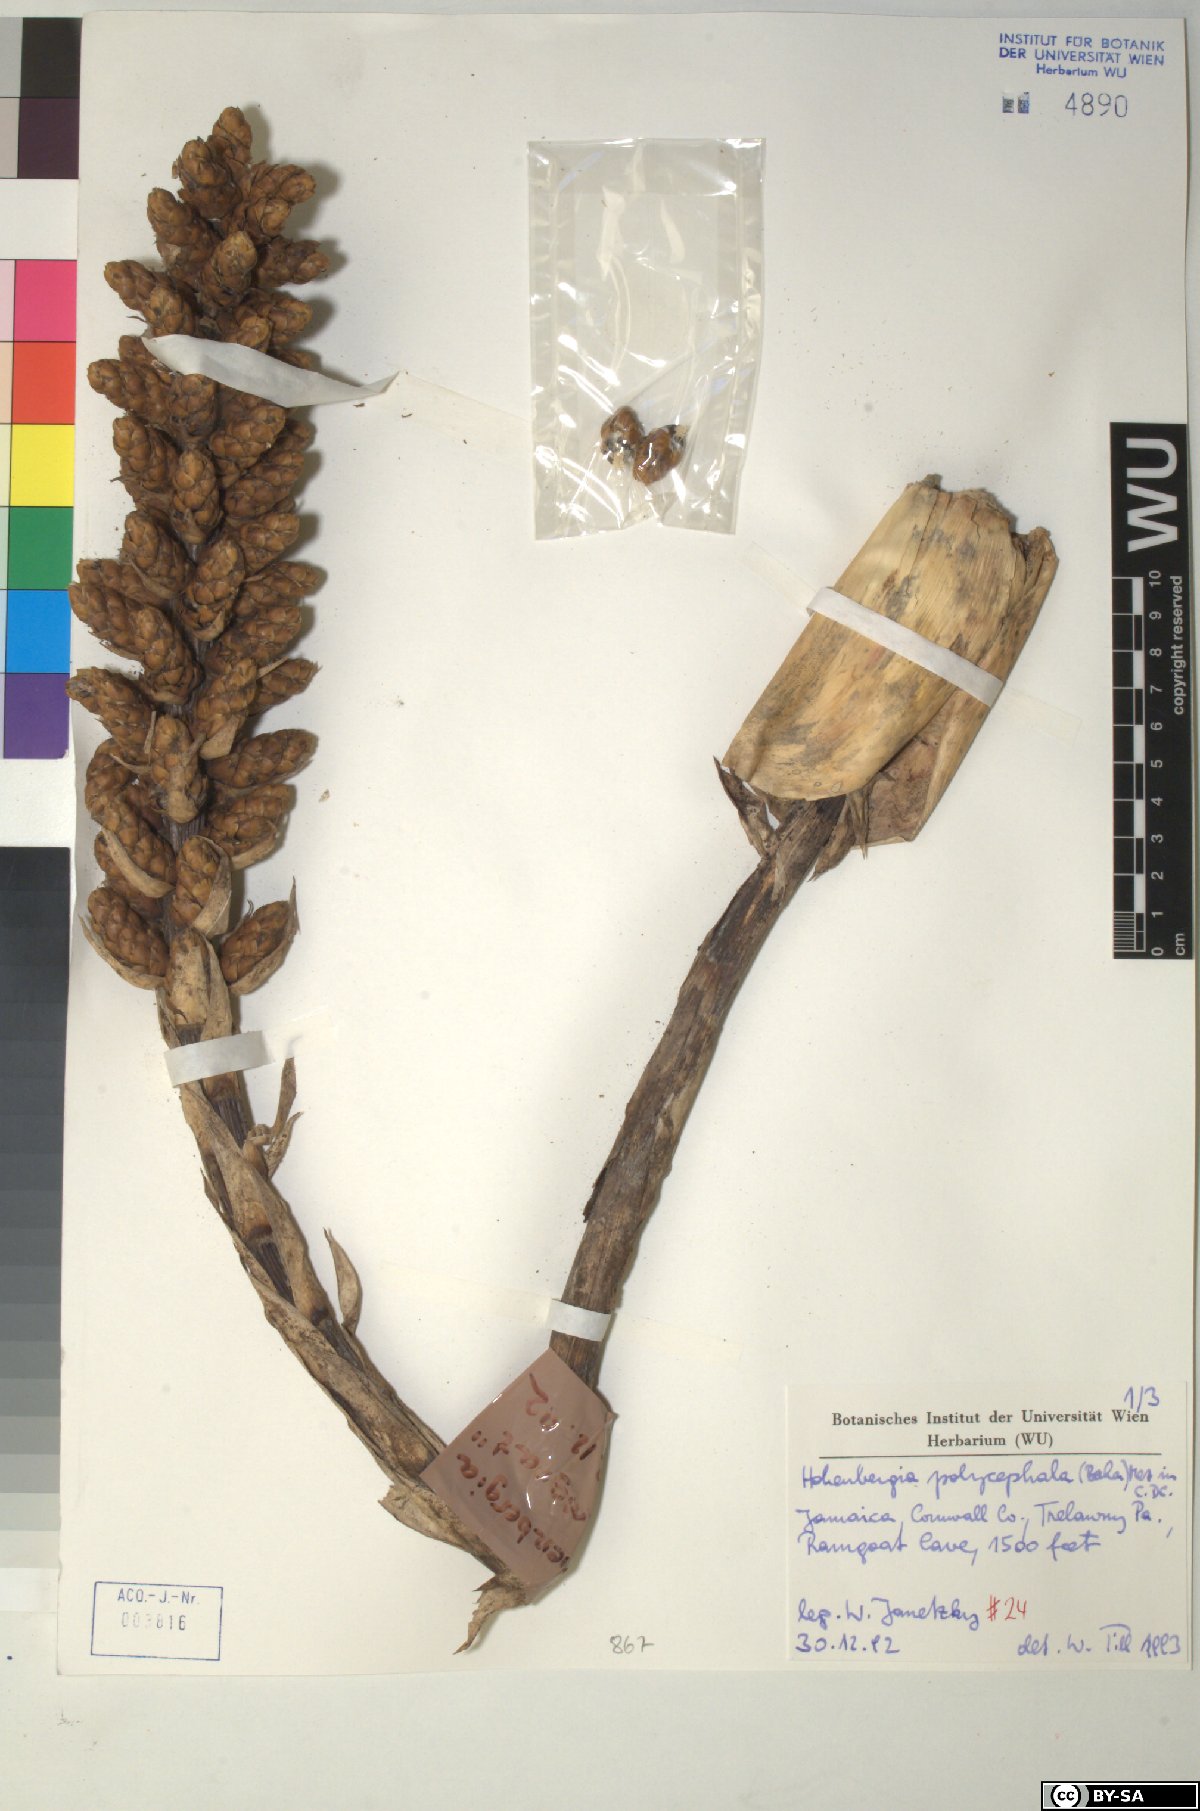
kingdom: Plantae
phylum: Tracheophyta
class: Liliopsida
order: Poales
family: Bromeliaceae
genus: Wittmackia
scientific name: Wittmackia polycephala
